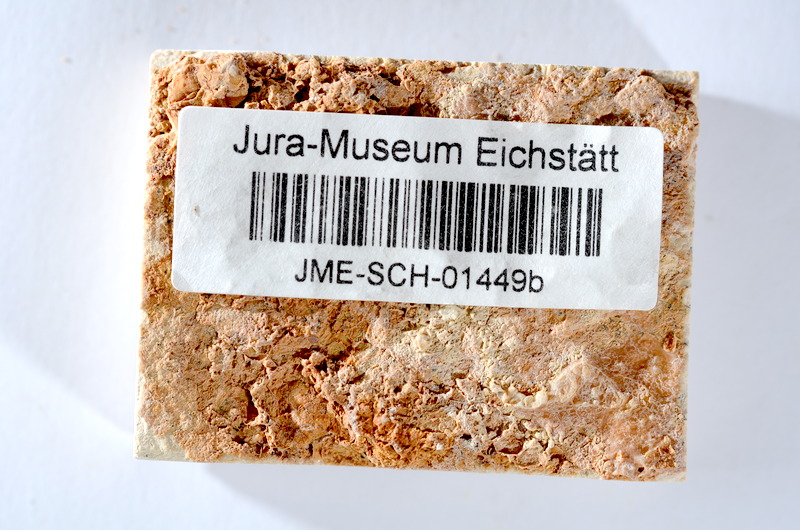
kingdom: Animalia
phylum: Chordata
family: Ascalaboidae
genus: Tharsis
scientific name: Tharsis dubius
